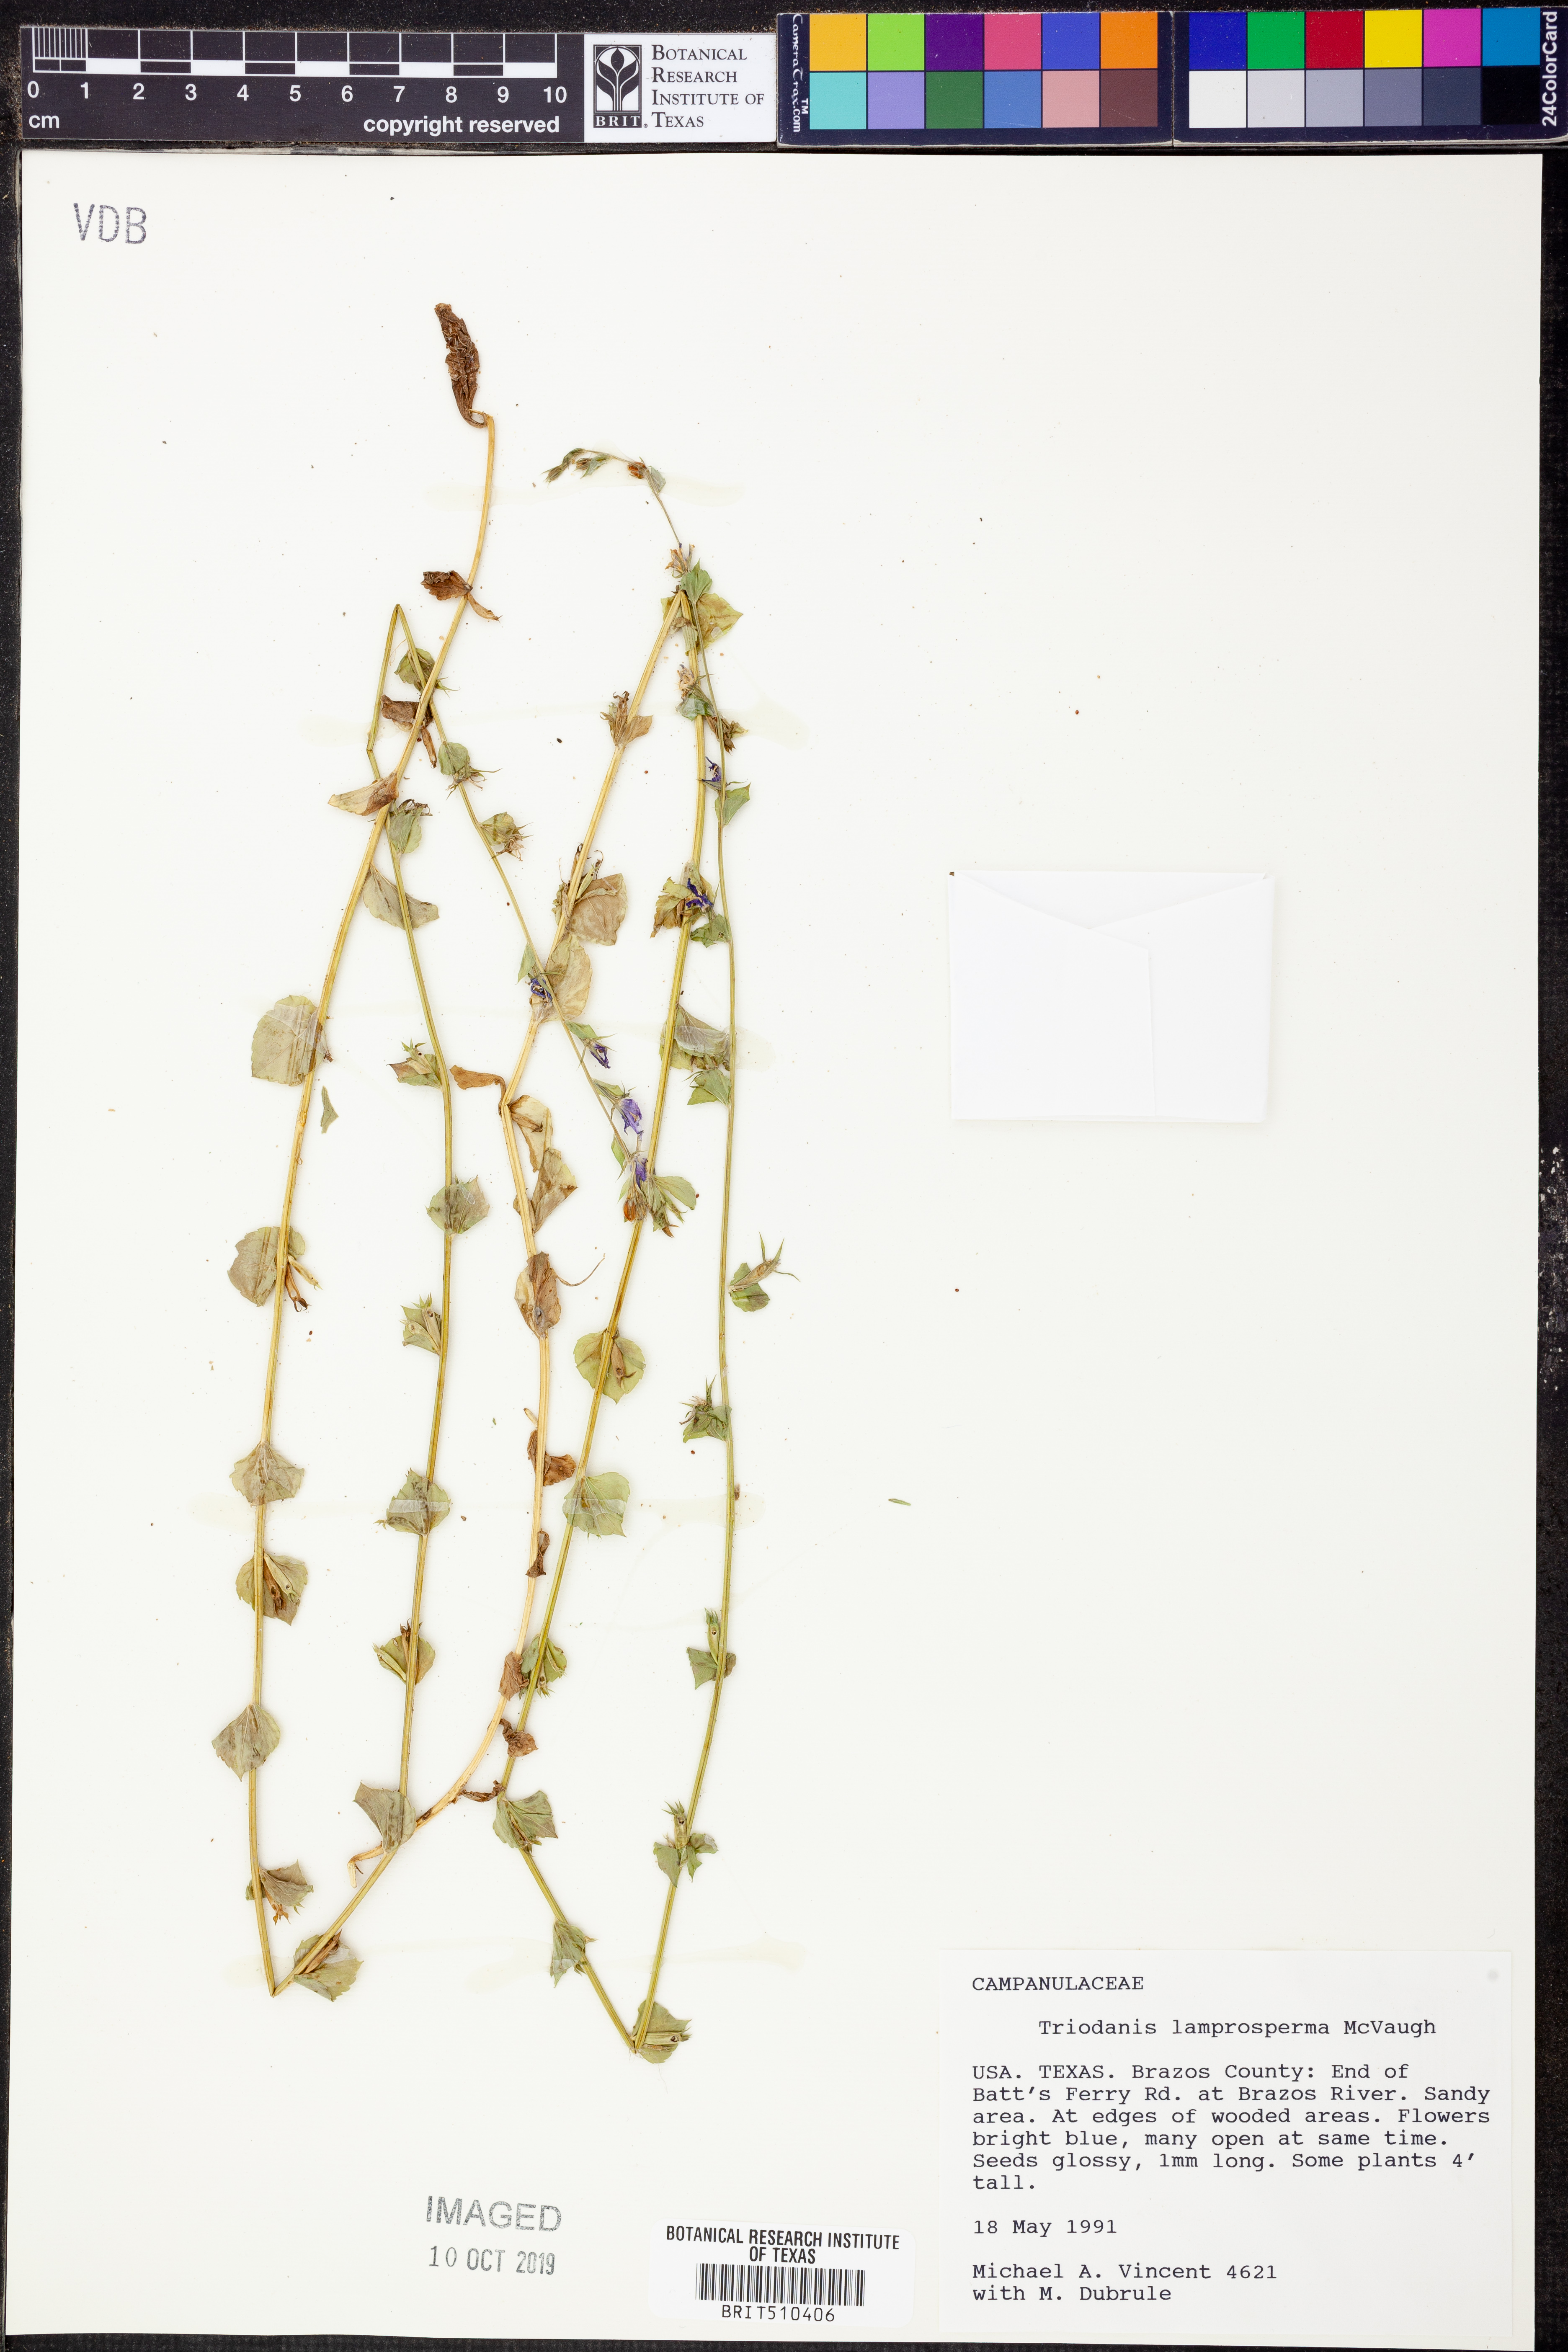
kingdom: Plantae
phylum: Tracheophyta
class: Magnoliopsida
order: Asterales
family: Campanulaceae
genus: Triodanis
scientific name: Triodanis lamprosperma
